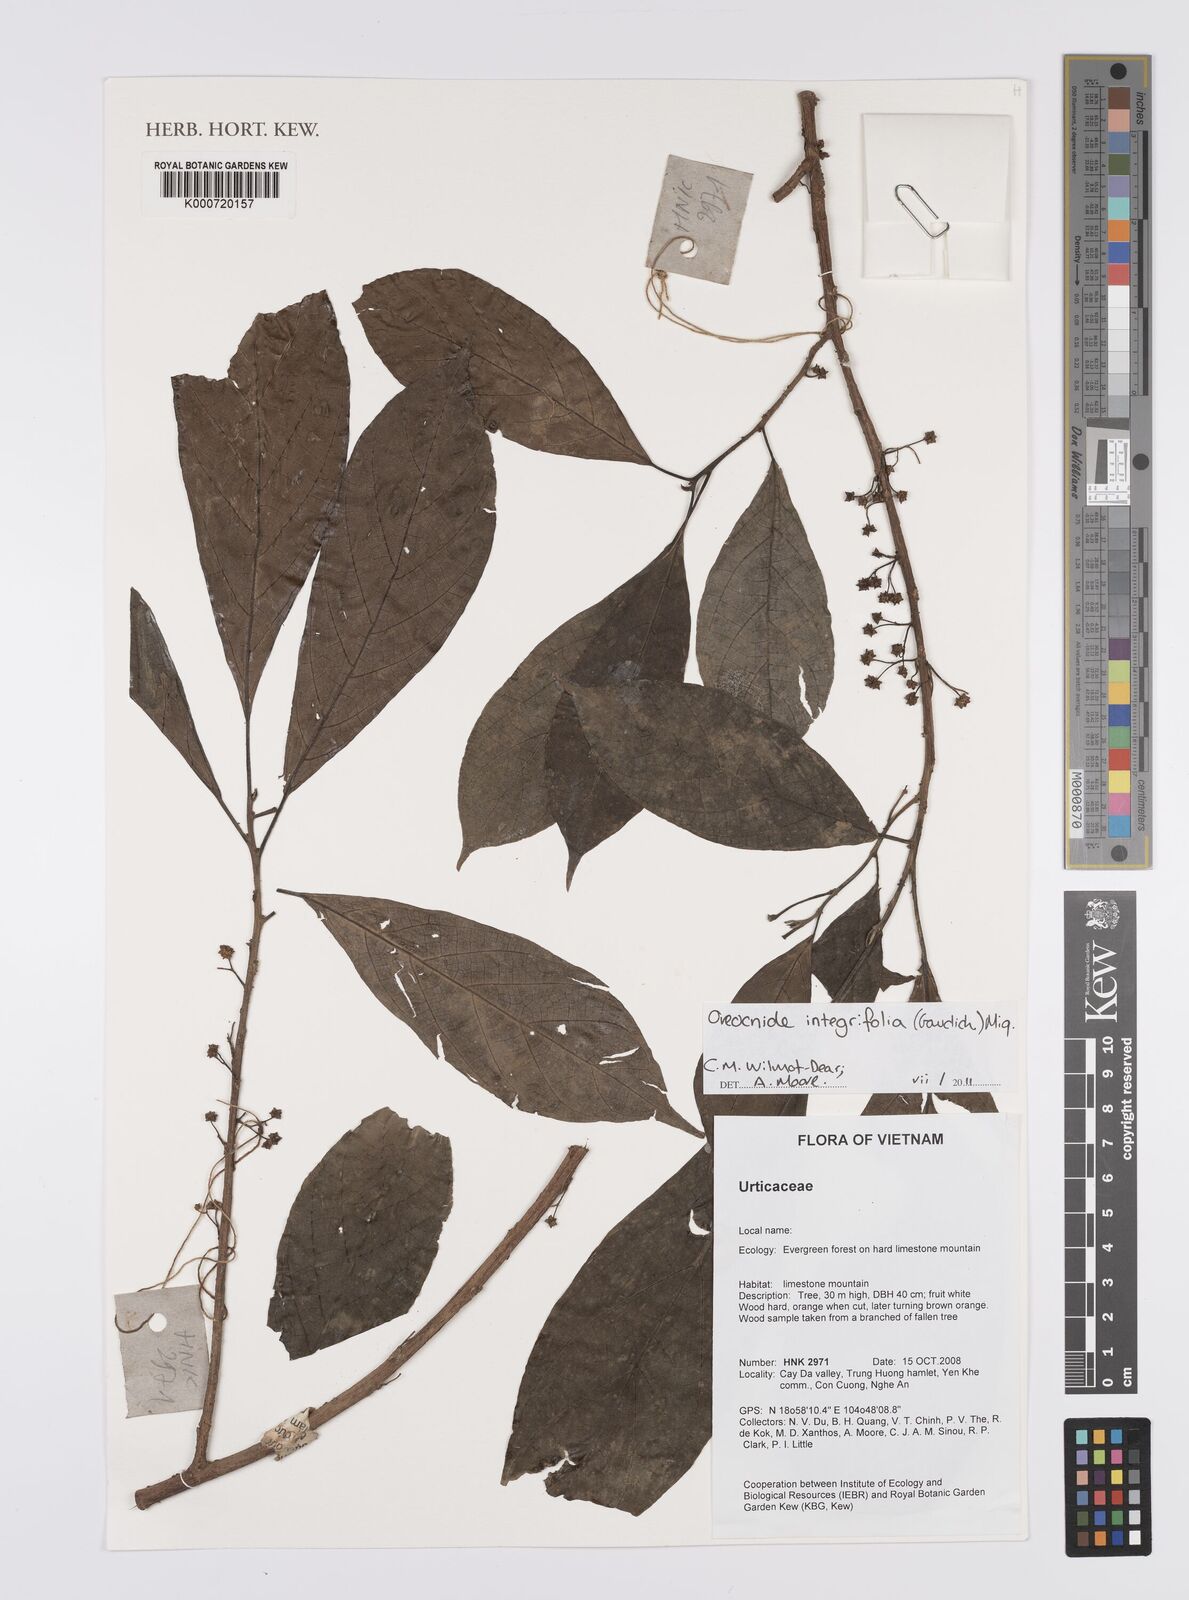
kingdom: Plantae
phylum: Tracheophyta
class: Magnoliopsida
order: Rosales
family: Urticaceae
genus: Oreocnide
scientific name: Oreocnide
